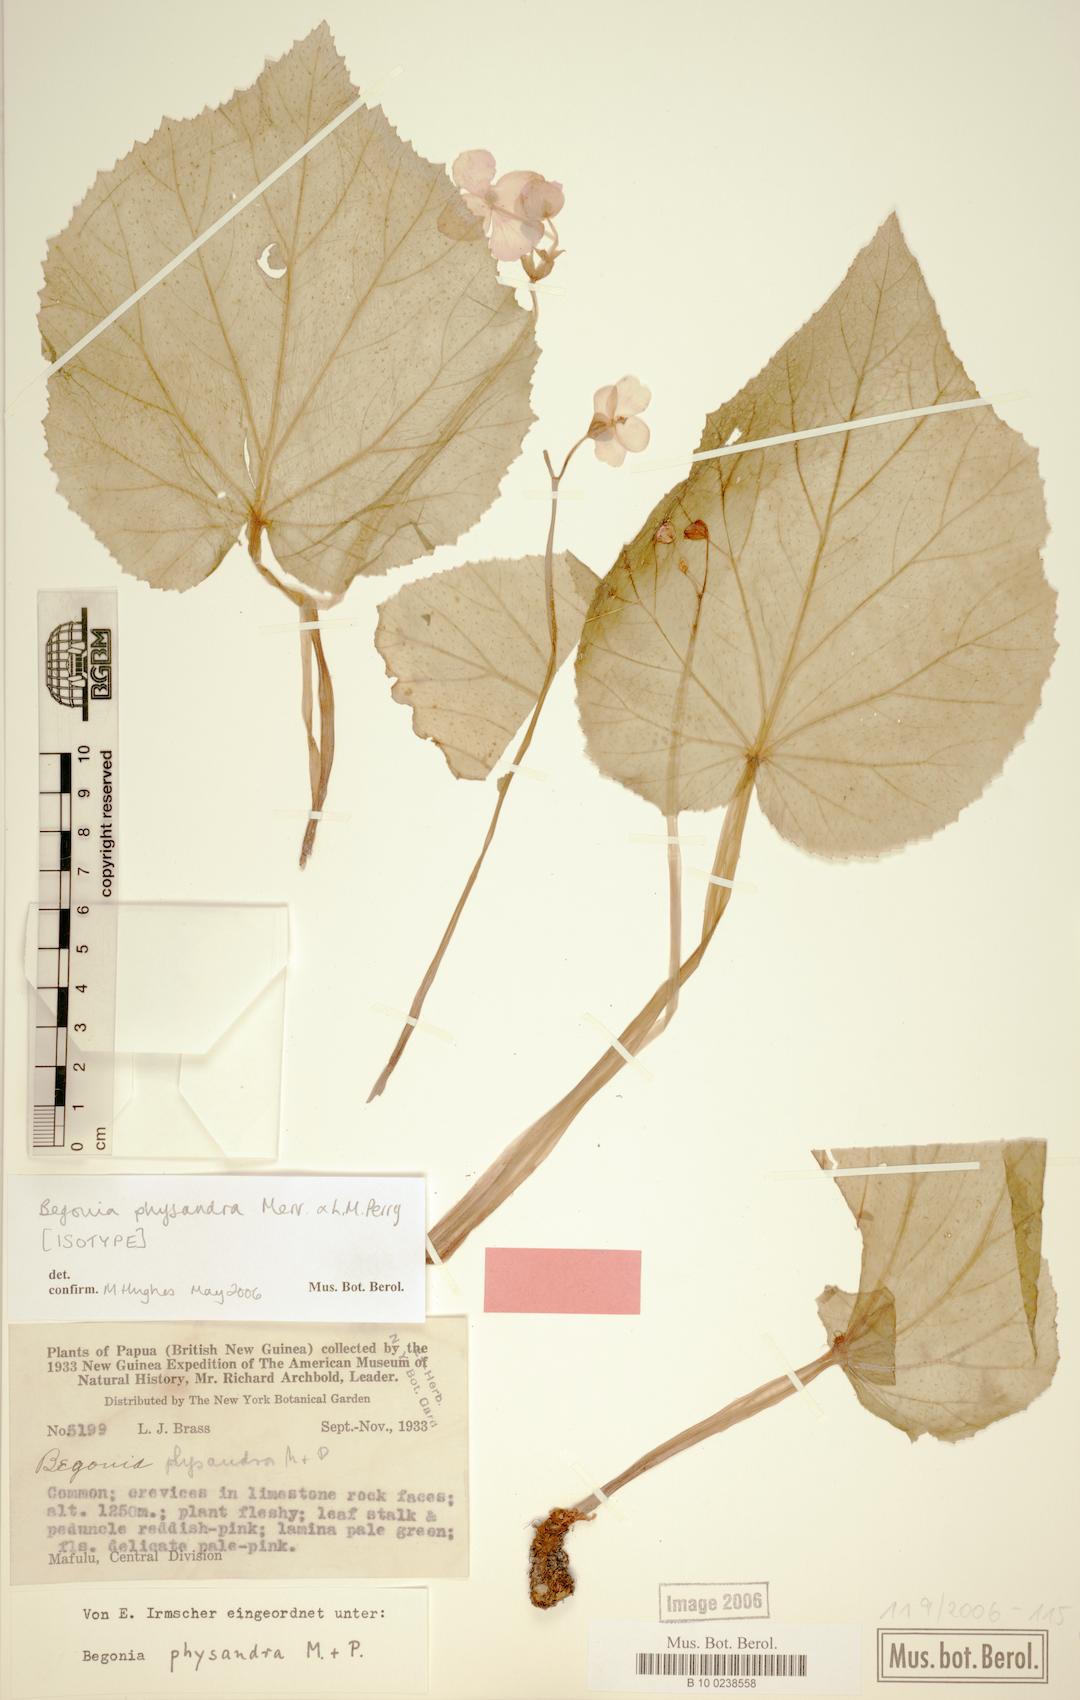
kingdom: Plantae
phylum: Tracheophyta
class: Magnoliopsida
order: Cucurbitales
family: Begoniaceae
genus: Begonia
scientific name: Begonia physandra
